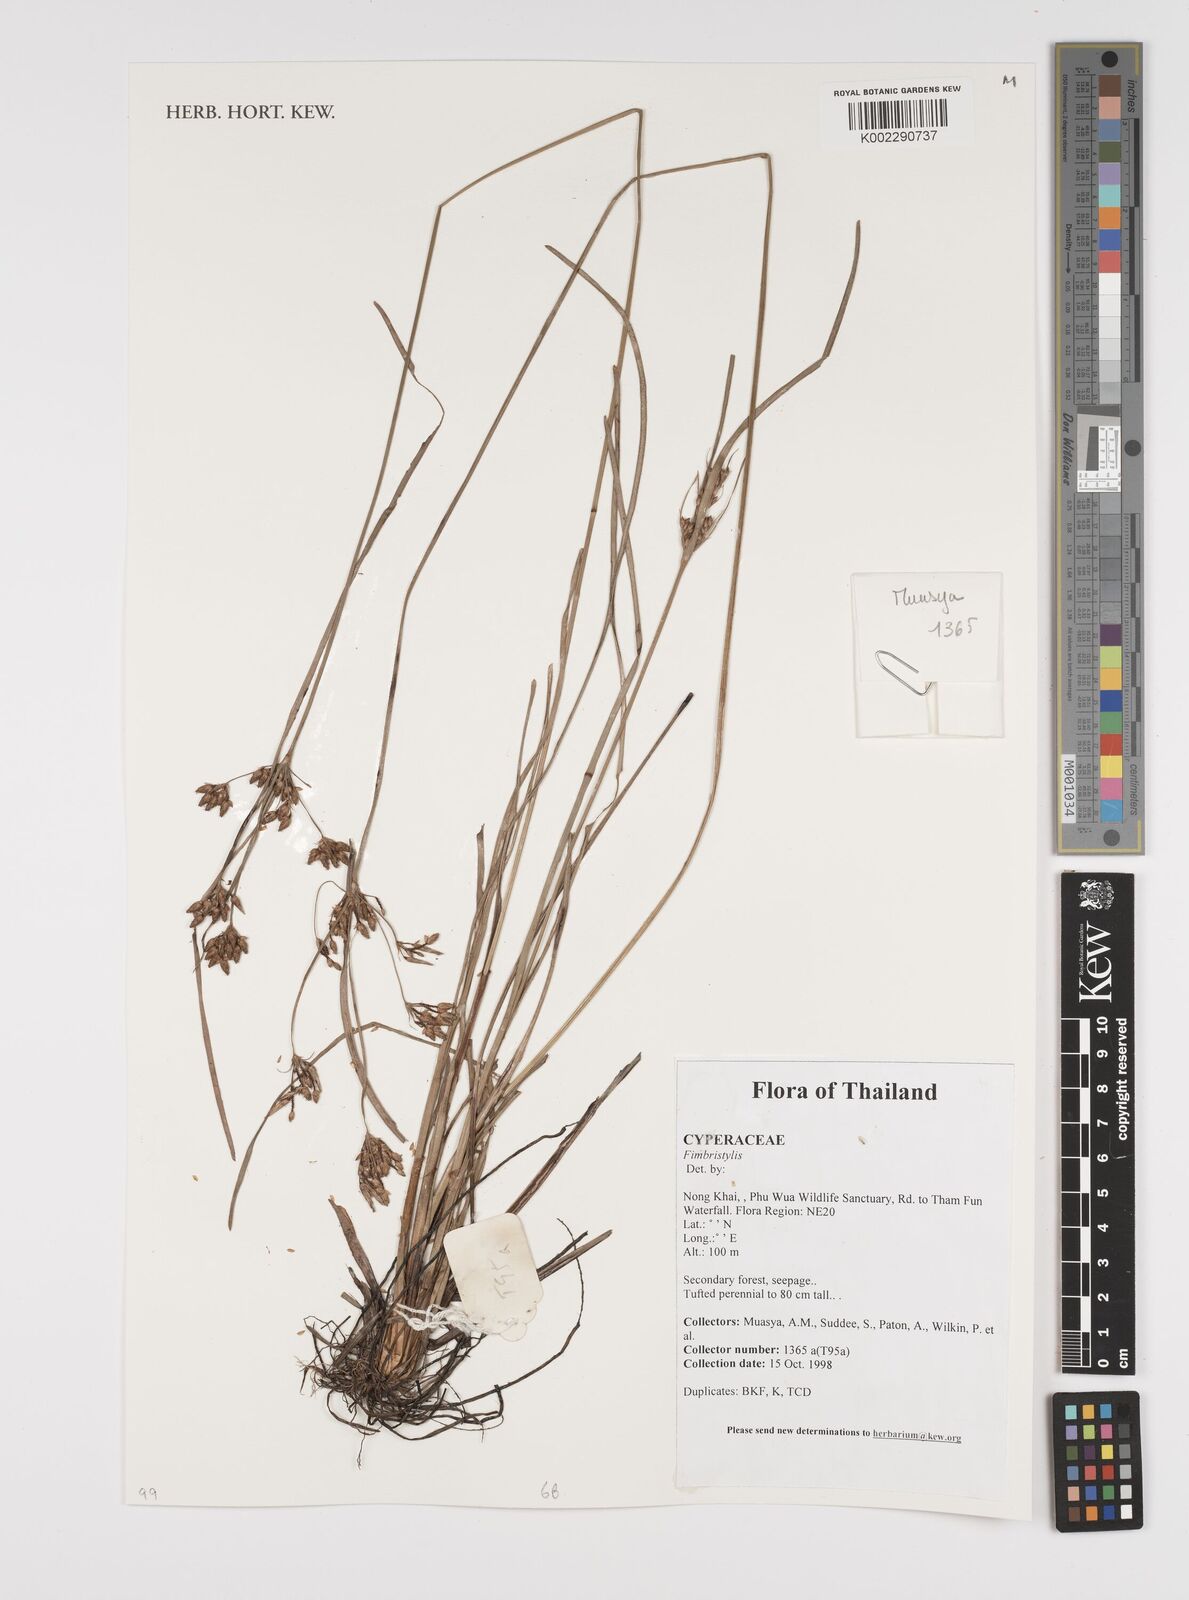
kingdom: Plantae
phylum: Tracheophyta
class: Liliopsida
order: Poales
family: Cyperaceae
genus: Fimbristylis
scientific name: Fimbristylis
